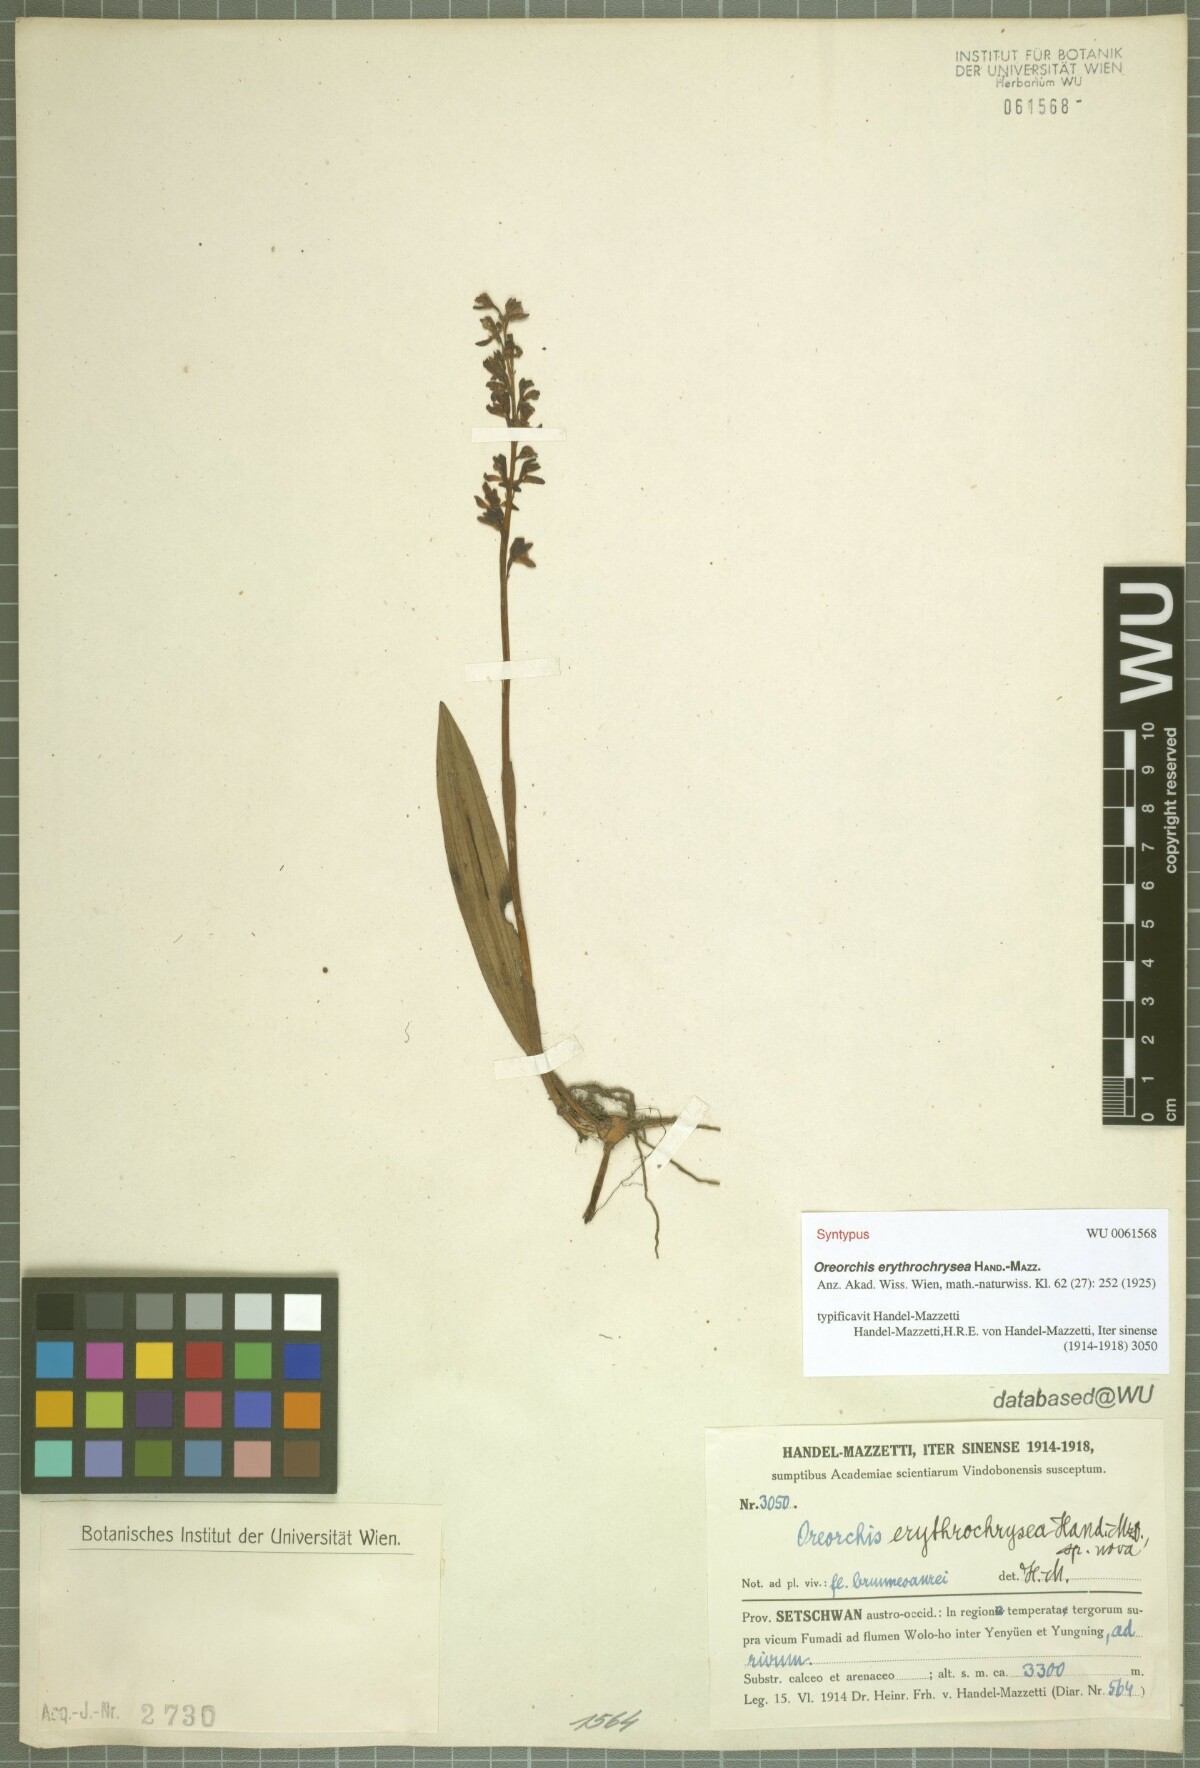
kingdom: Plantae
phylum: Tracheophyta
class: Liliopsida
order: Asparagales
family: Orchidaceae
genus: Oreorchis
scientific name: Oreorchis erythrochrysea
